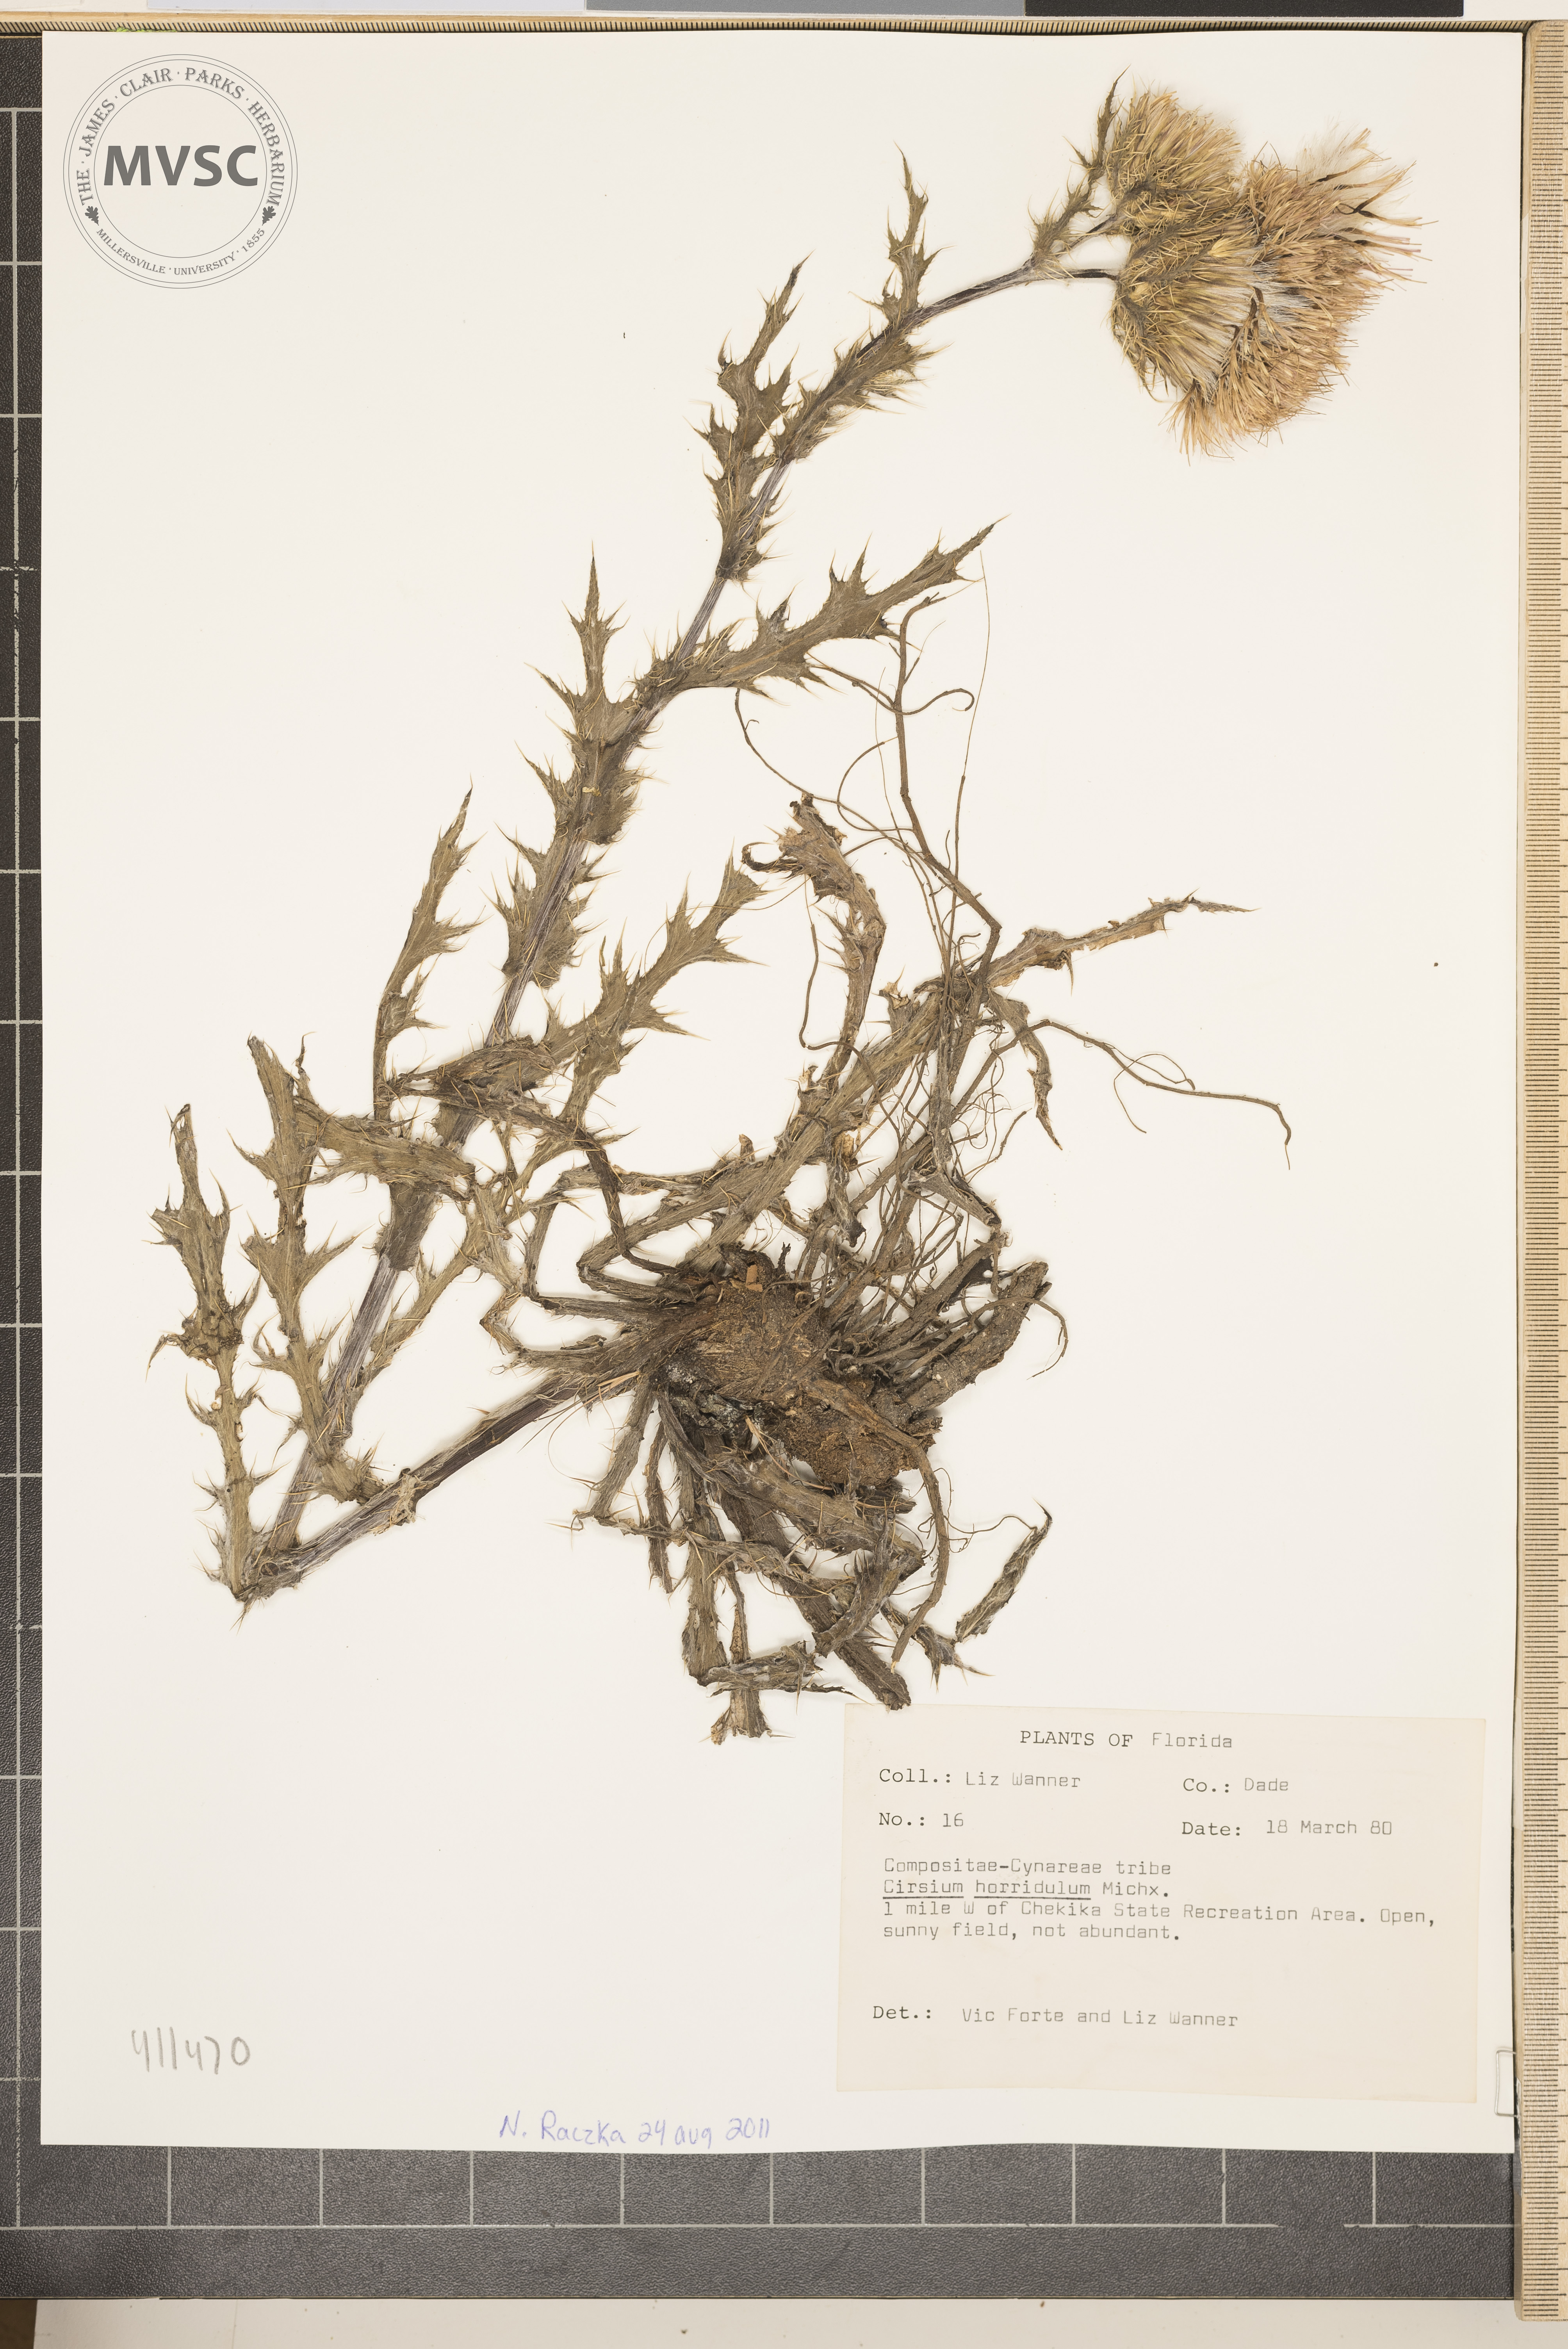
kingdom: Plantae
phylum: Tracheophyta
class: Magnoliopsida
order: Asterales
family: Asteraceae
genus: Cirsium
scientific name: Cirsium horridulum
